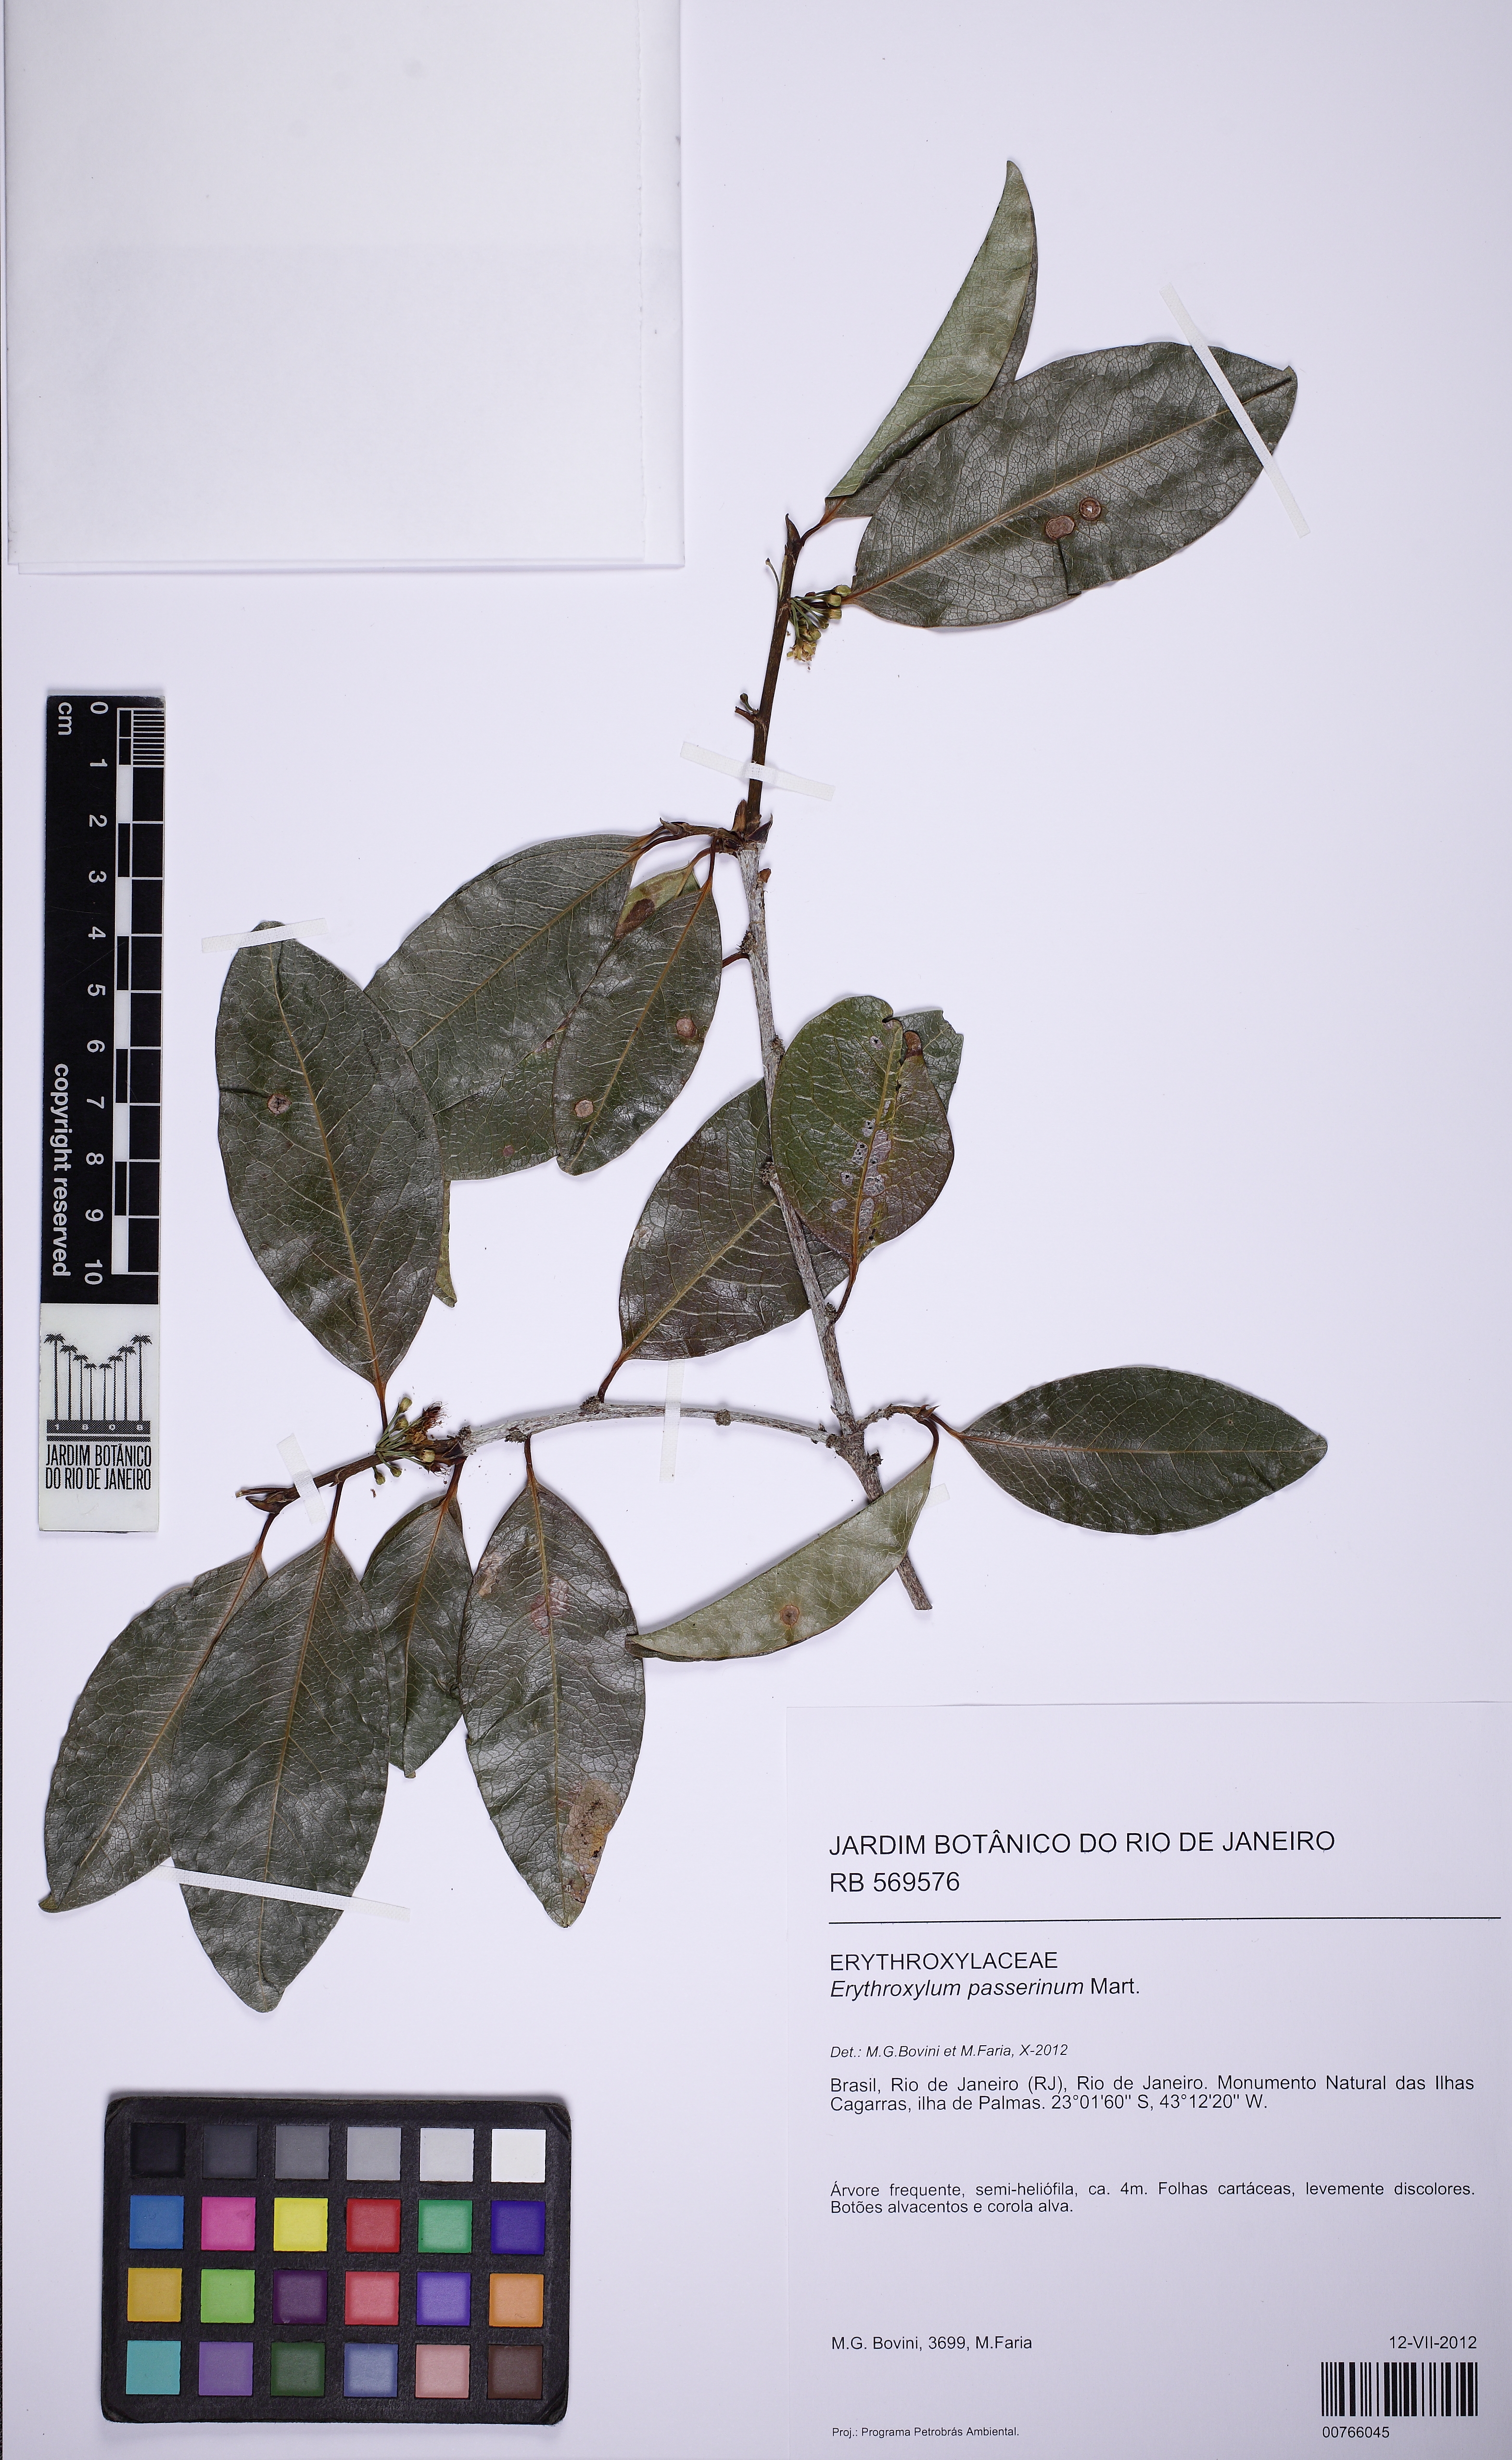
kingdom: Plantae
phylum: Tracheophyta
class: Magnoliopsida
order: Malpighiales
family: Erythroxylaceae
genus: Erythroxylum
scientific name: Erythroxylum passerinum
